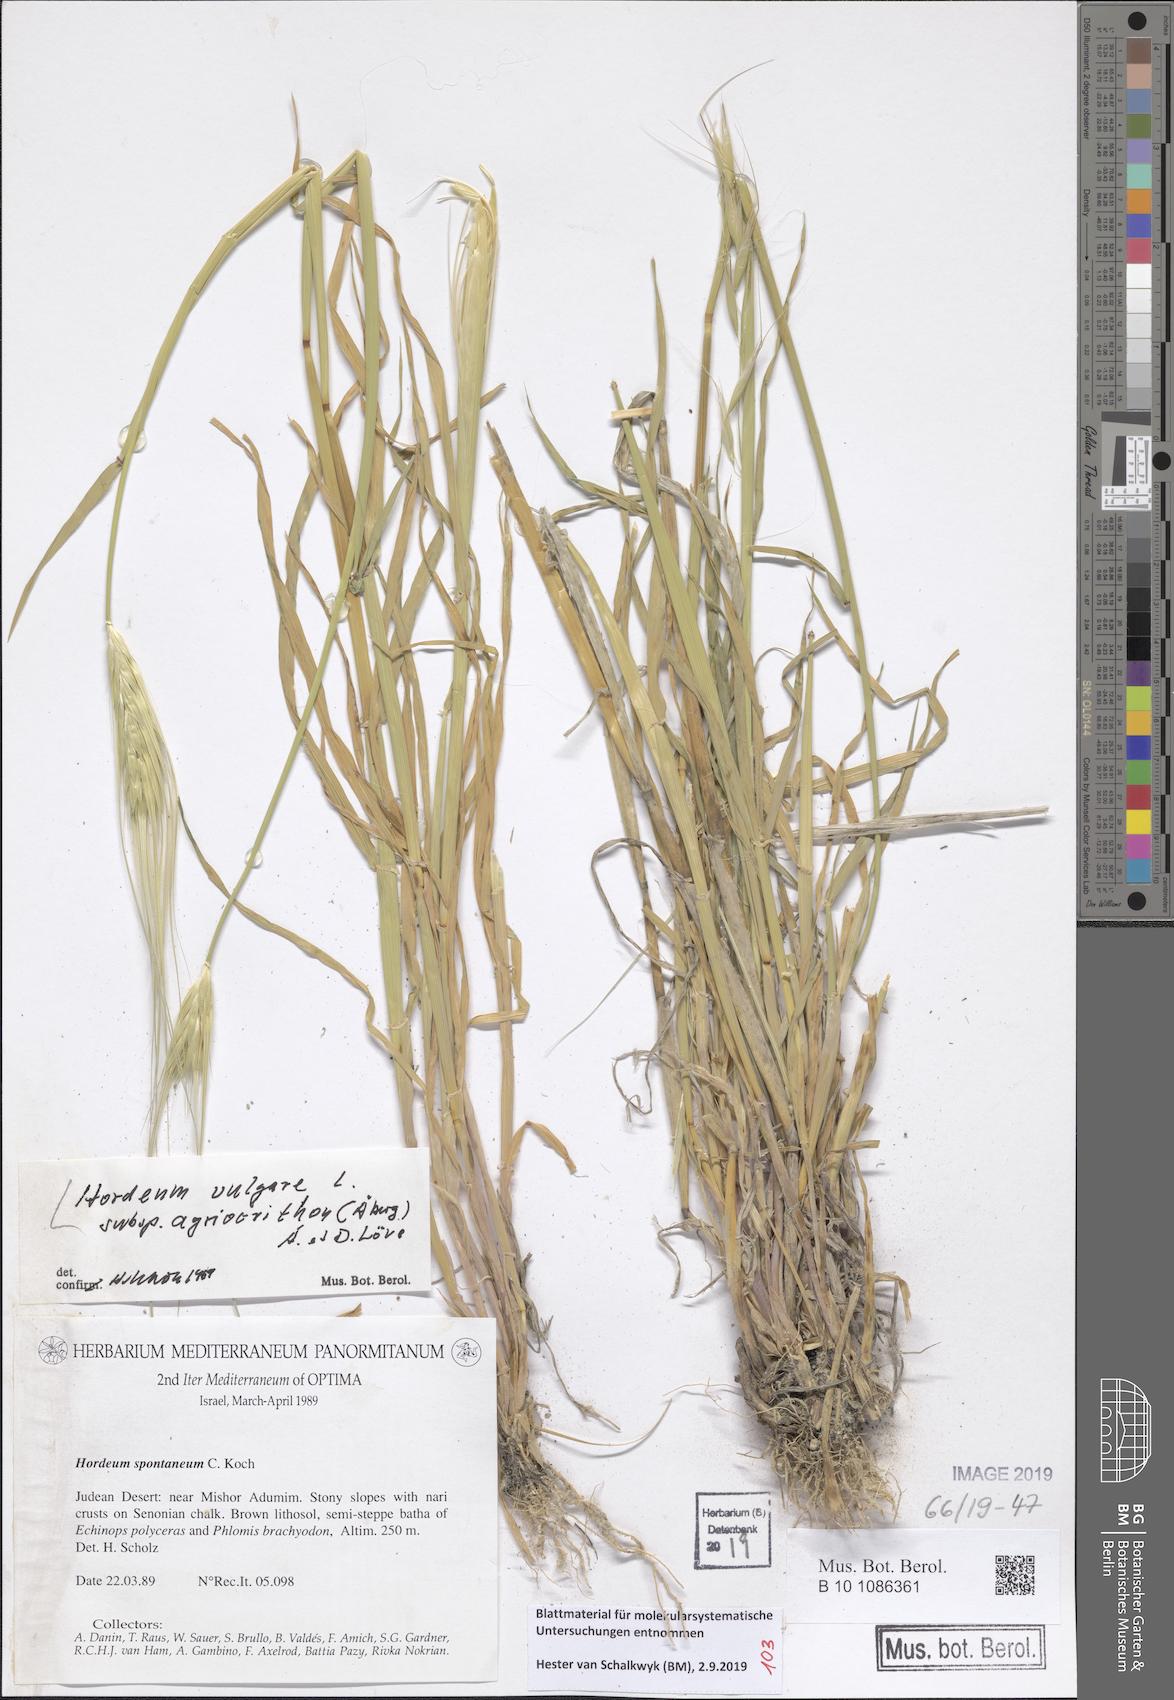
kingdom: Plantae
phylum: Tracheophyta
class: Liliopsida
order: Poales
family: Poaceae
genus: Hordeum
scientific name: Hordeum spontaneum
